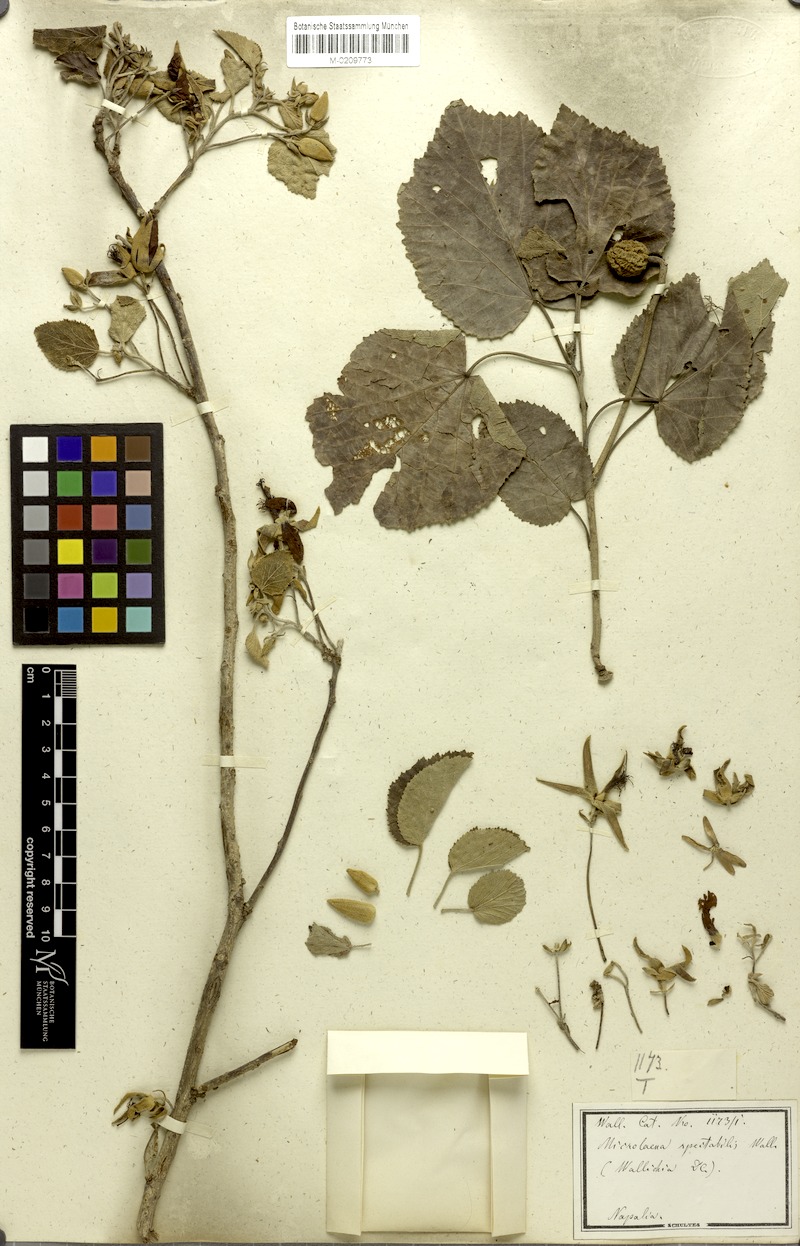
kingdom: Plantae
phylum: Tracheophyta
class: Magnoliopsida
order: Malvales
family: Malvaceae
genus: Eriolaena
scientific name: Eriolaena spectabilis
